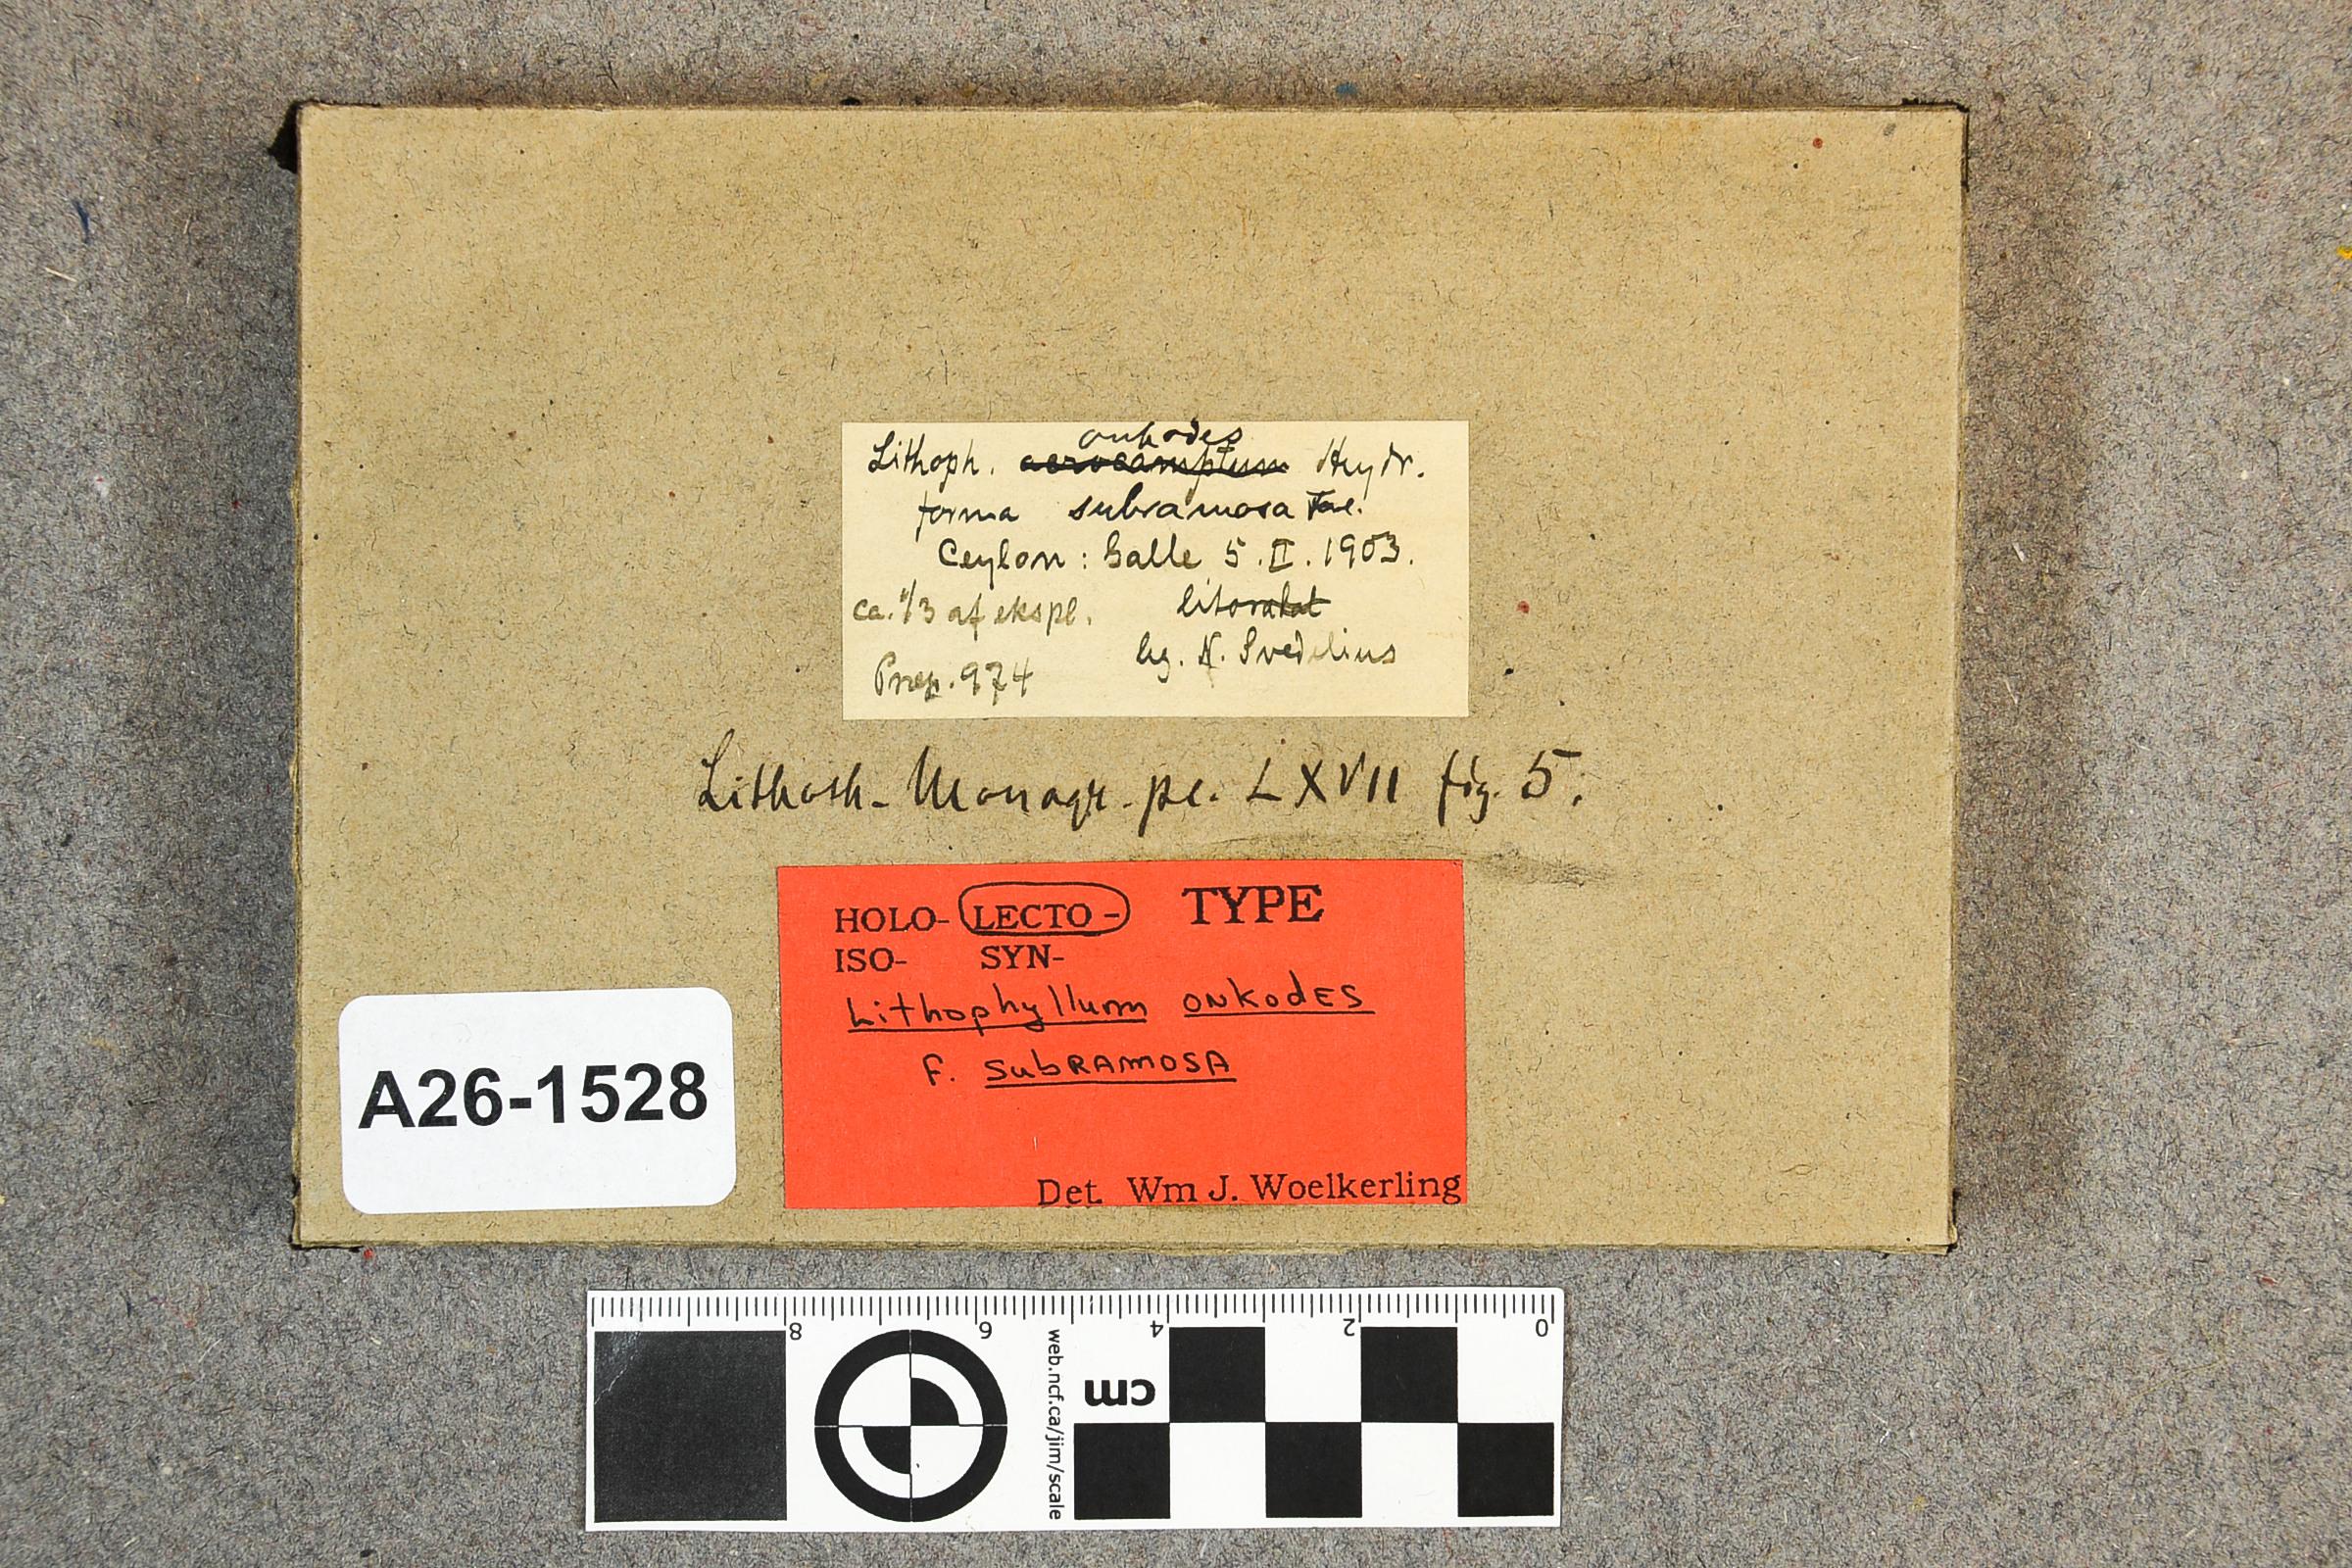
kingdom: Plantae
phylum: Rhodophyta
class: Florideophyceae
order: Corallinales
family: Porolithaceae
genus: Porolithon
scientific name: Porolithon onkodes
